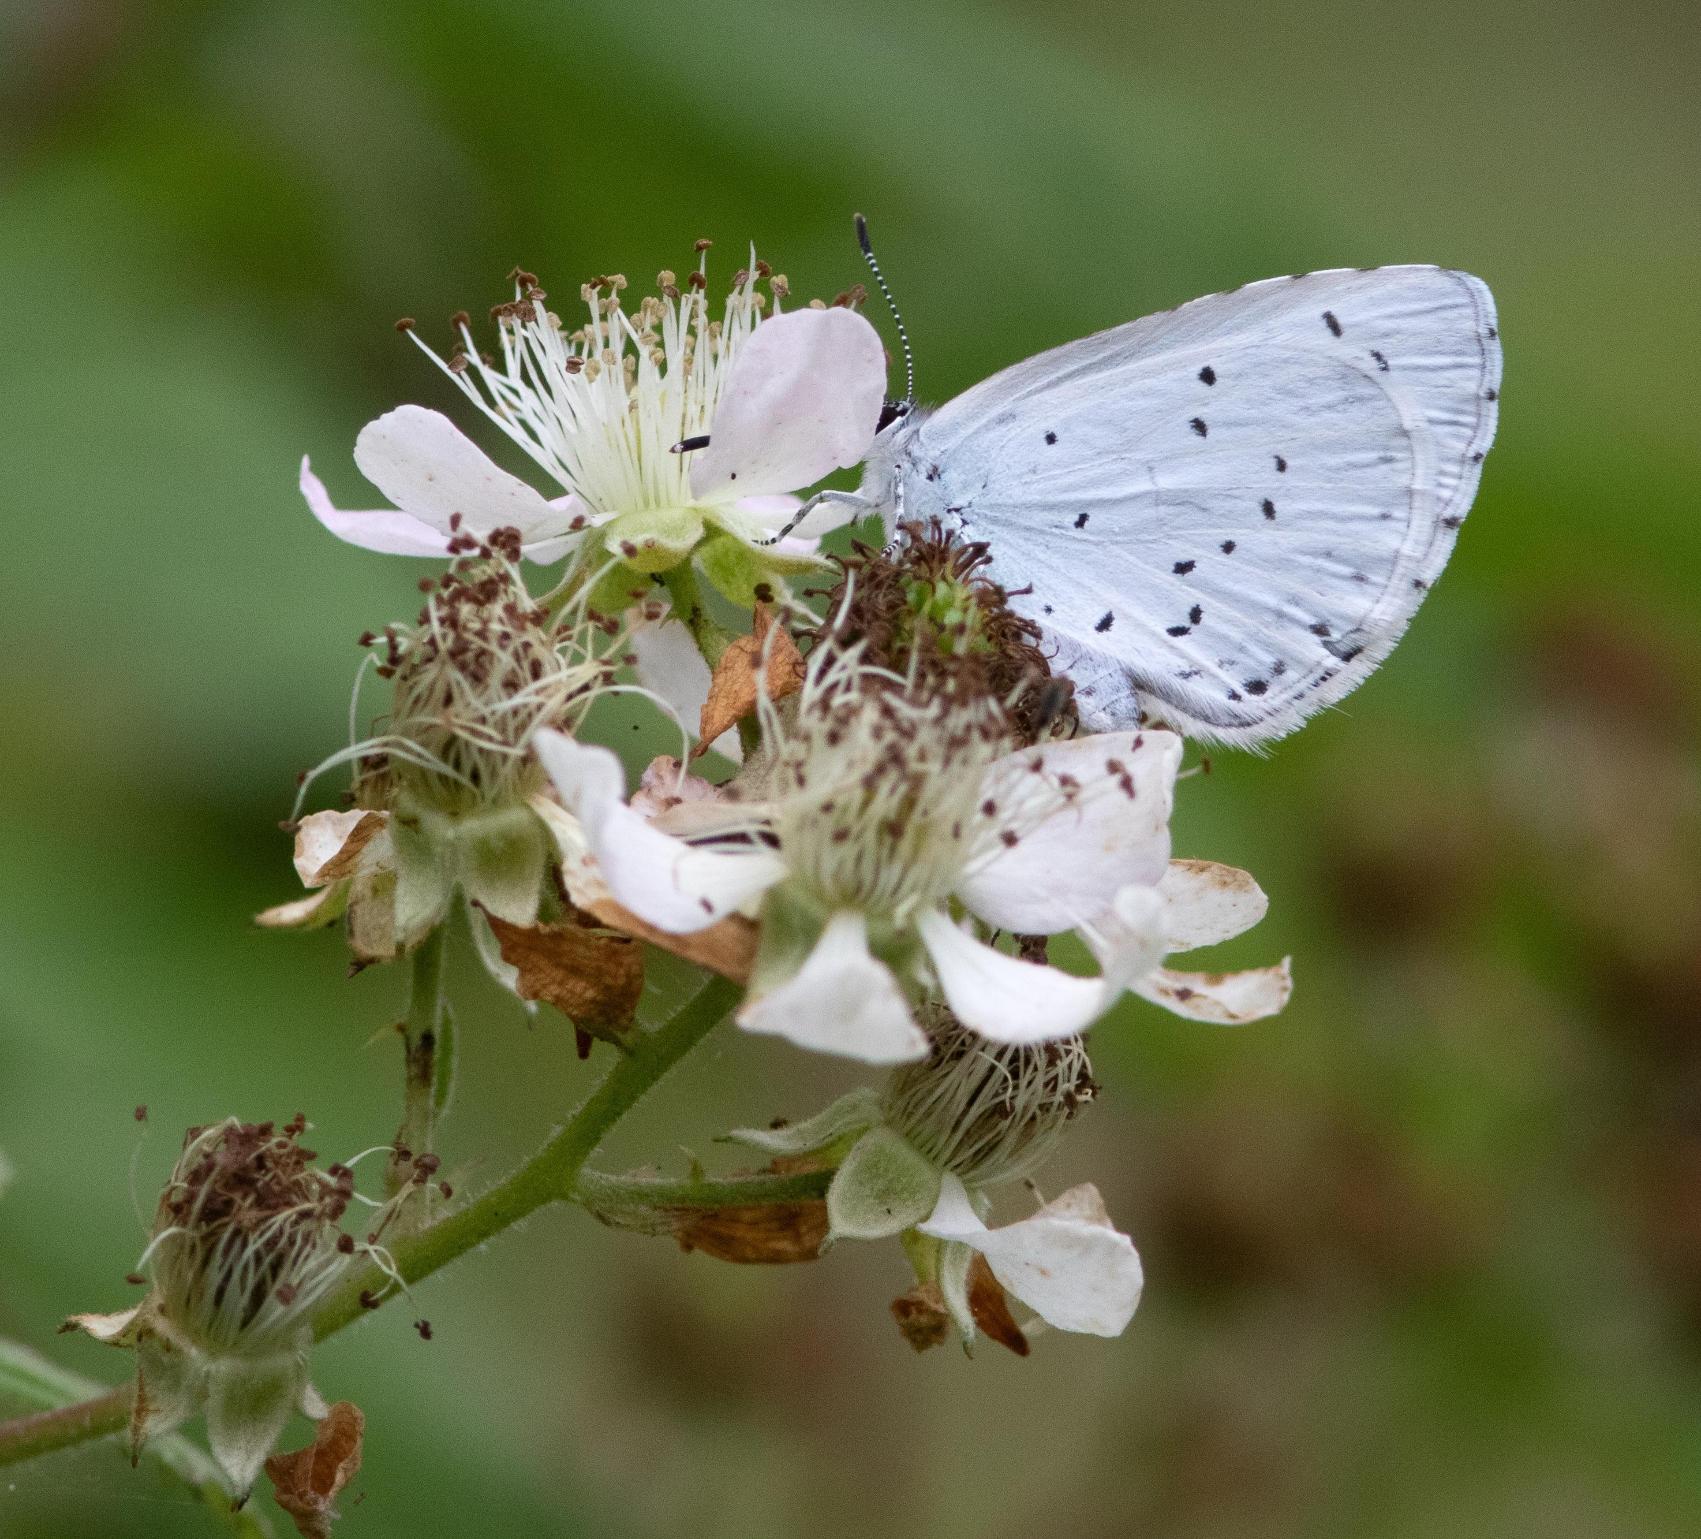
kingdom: Animalia
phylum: Arthropoda
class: Insecta
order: Lepidoptera
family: Lycaenidae
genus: Celastrina
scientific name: Celastrina argiolus
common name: Skovblåfugl
